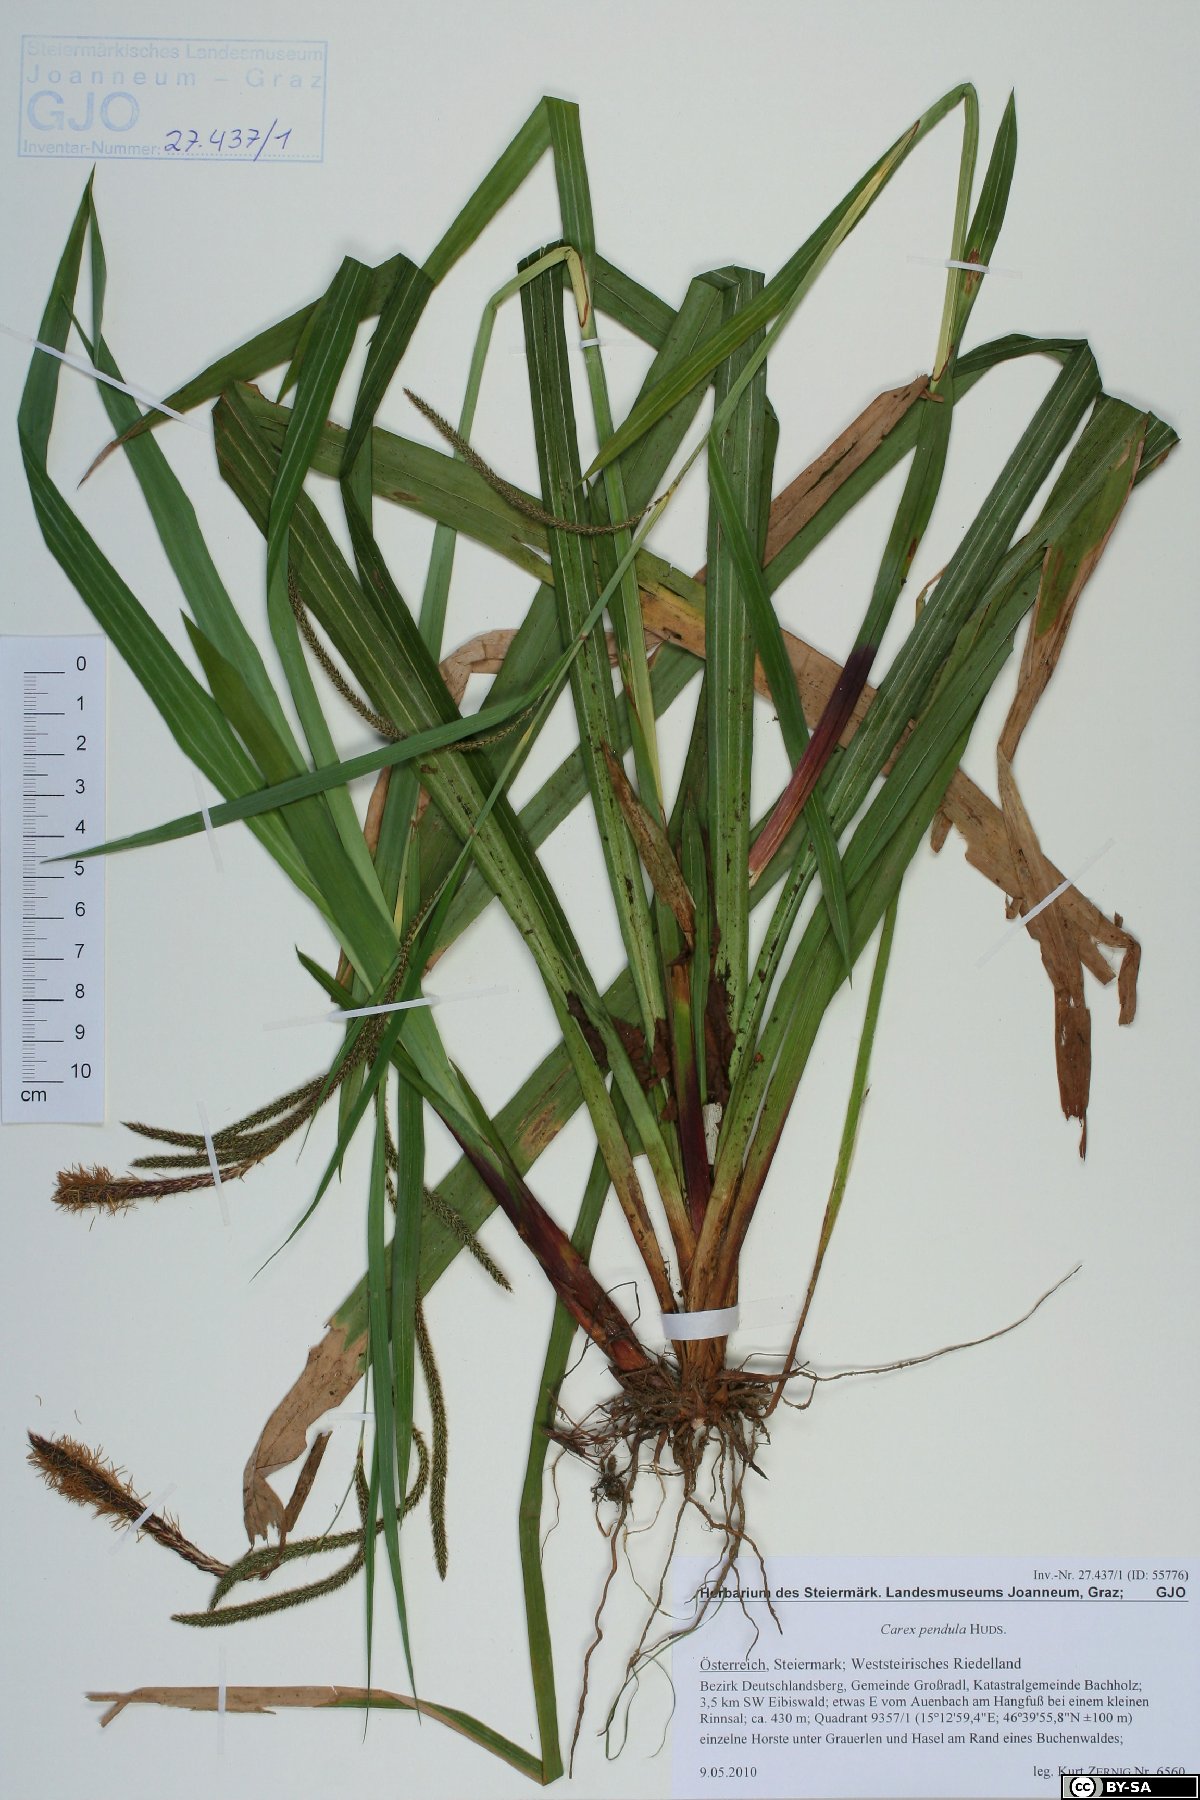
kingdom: Plantae
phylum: Tracheophyta
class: Liliopsida
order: Poales
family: Cyperaceae
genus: Carex
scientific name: Carex pendula
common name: Pendulous sedge
